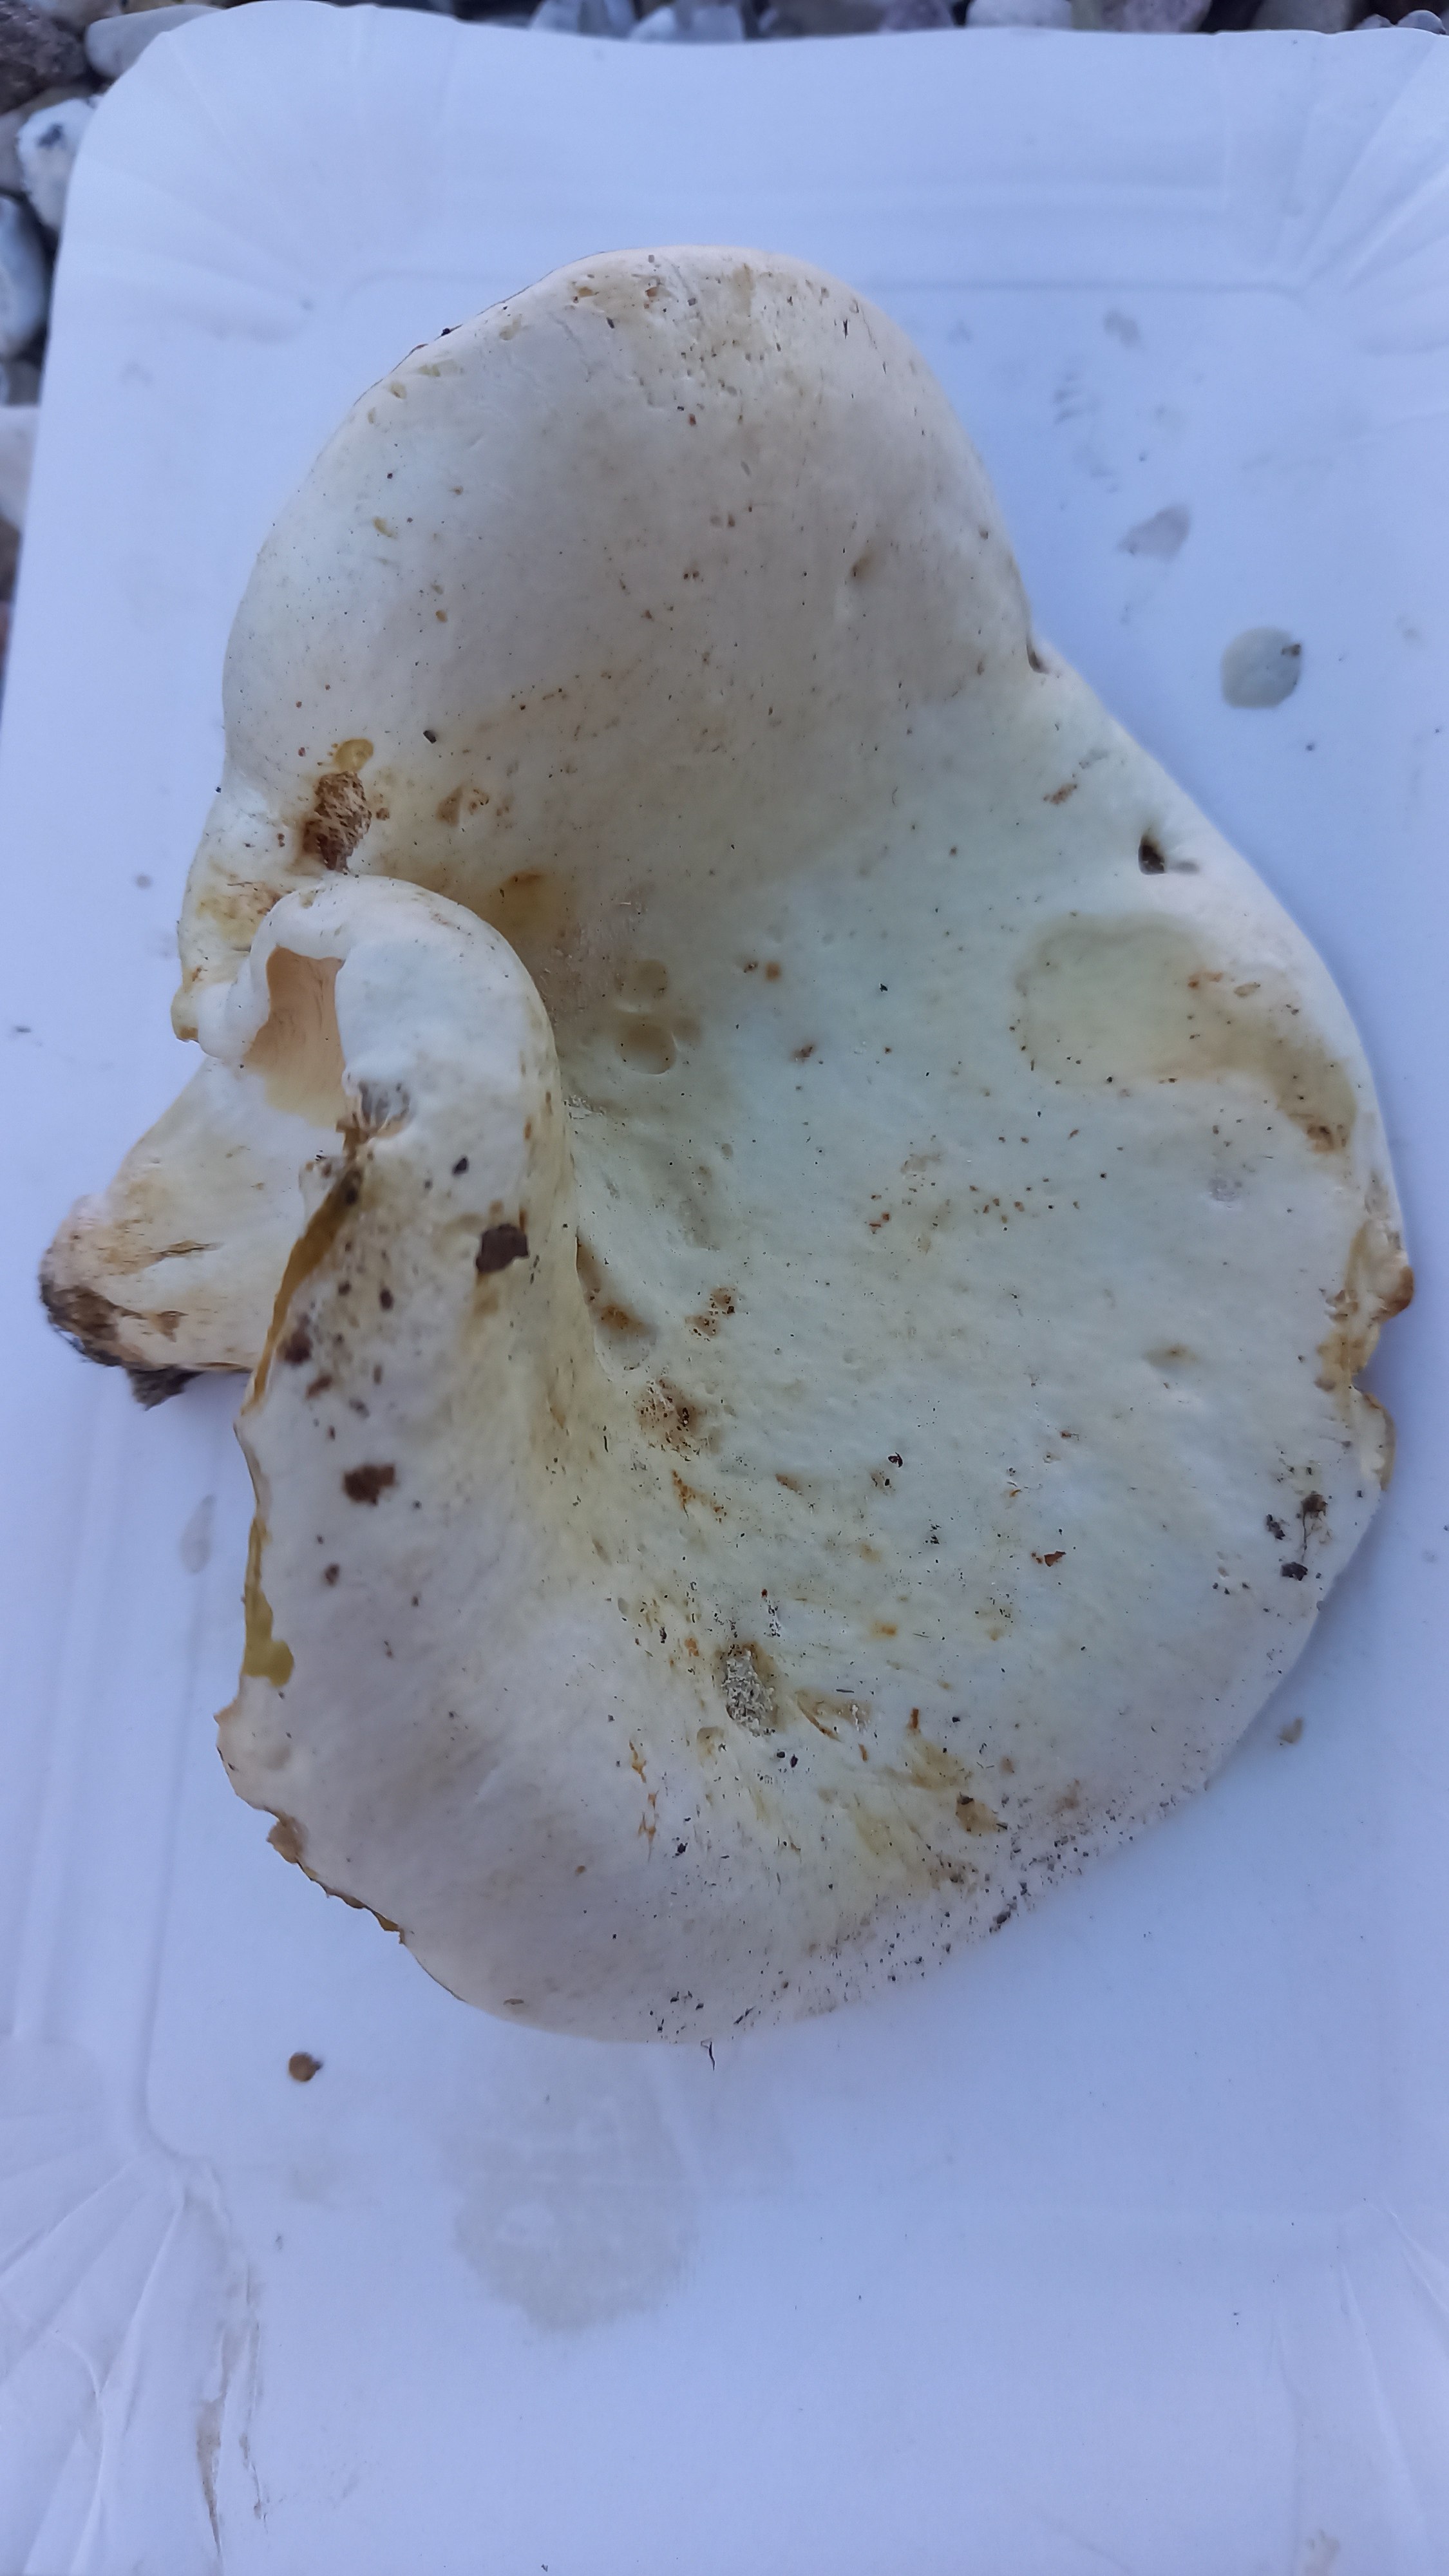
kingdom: Fungi
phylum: Basidiomycota
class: Agaricomycetes
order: Russulales
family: Russulaceae
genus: Lactifluus
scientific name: Lactifluus
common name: mælkehat
